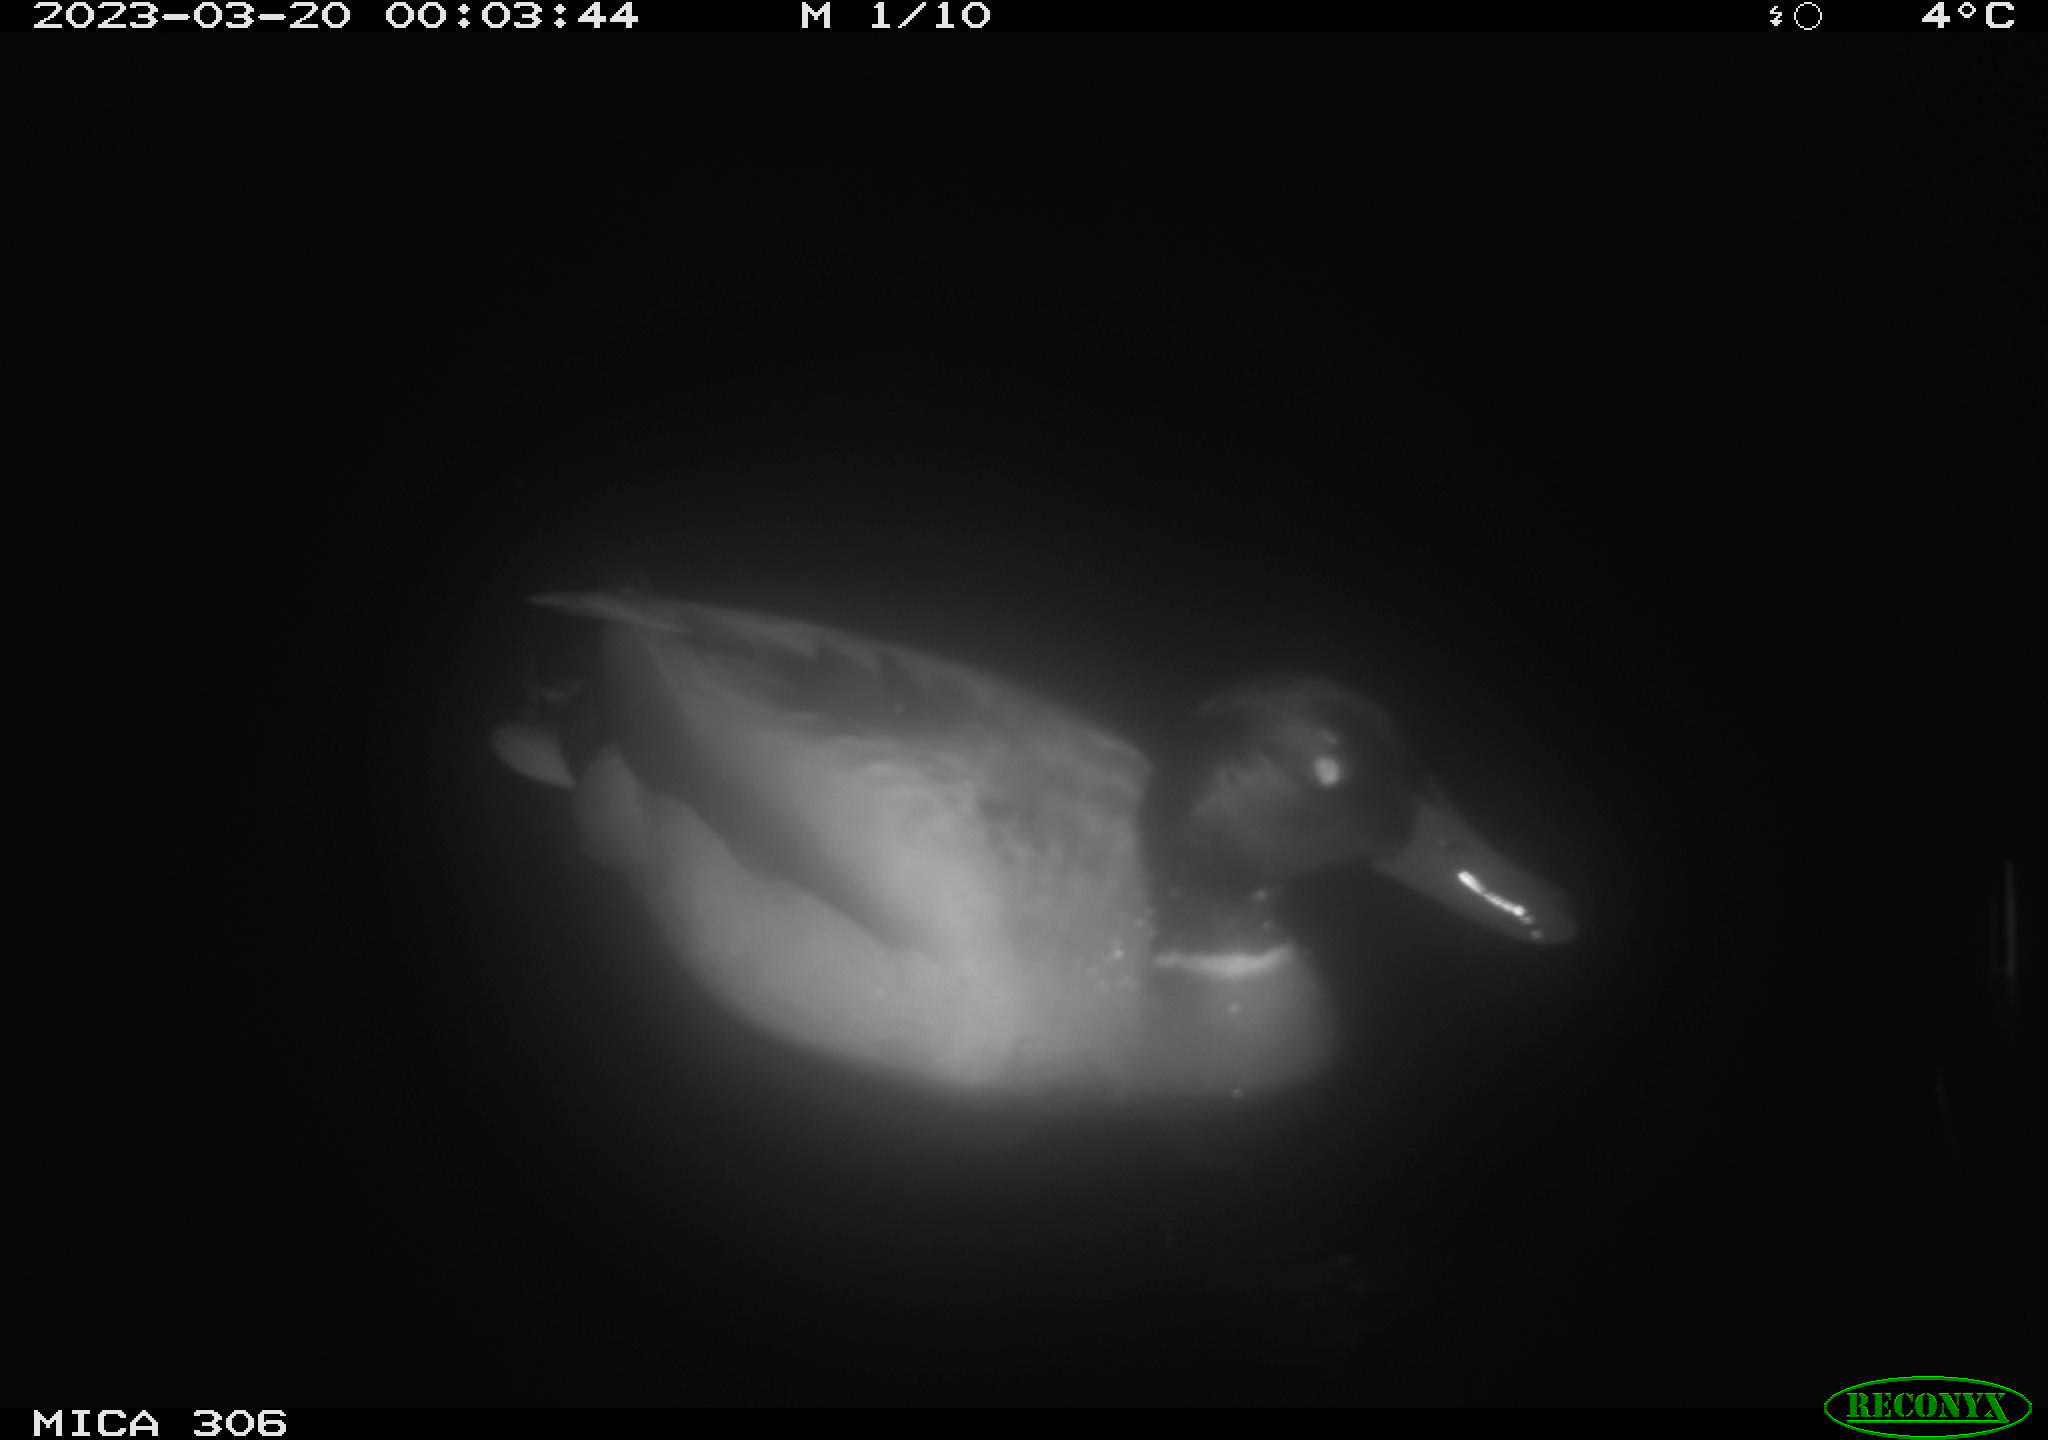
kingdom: Animalia
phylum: Chordata
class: Aves
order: Anseriformes
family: Anatidae
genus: Anas
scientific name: Anas
